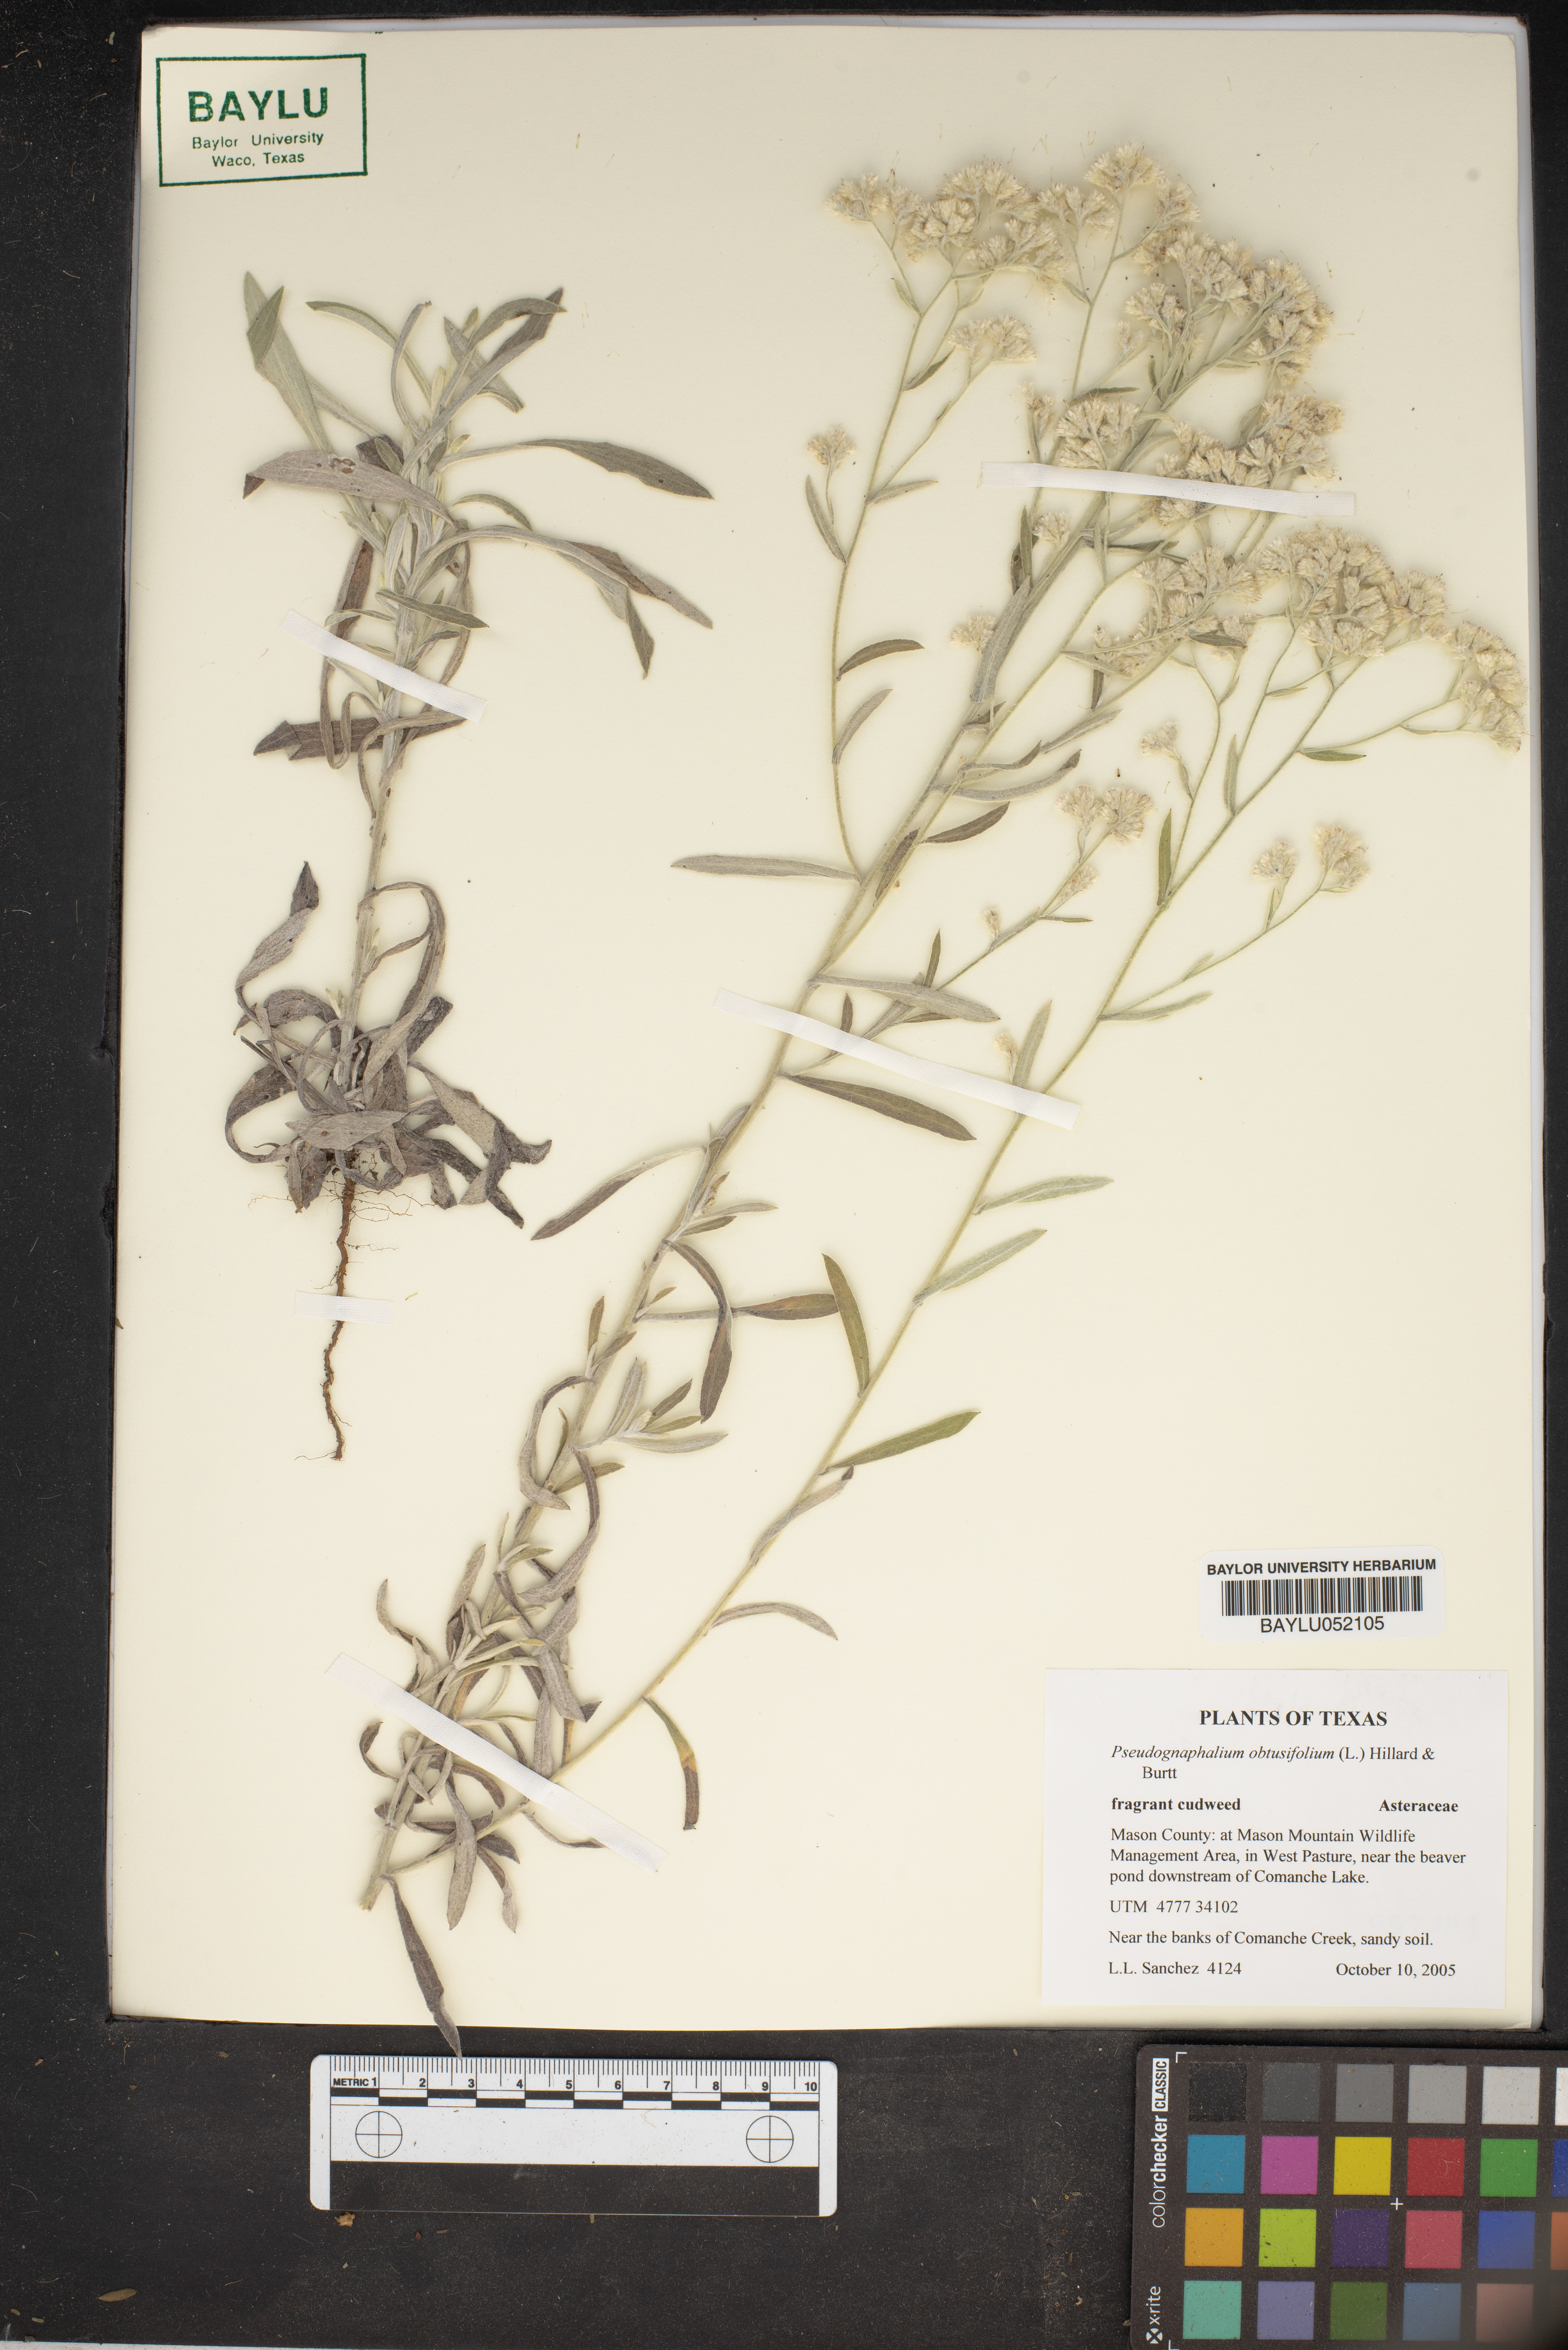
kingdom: Plantae
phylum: Tracheophyta
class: Magnoliopsida
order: Asterales
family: Asteraceae
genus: Pseudognaphalium
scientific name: Pseudognaphalium obtusifolium
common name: Eastern rabbit-tobacco
